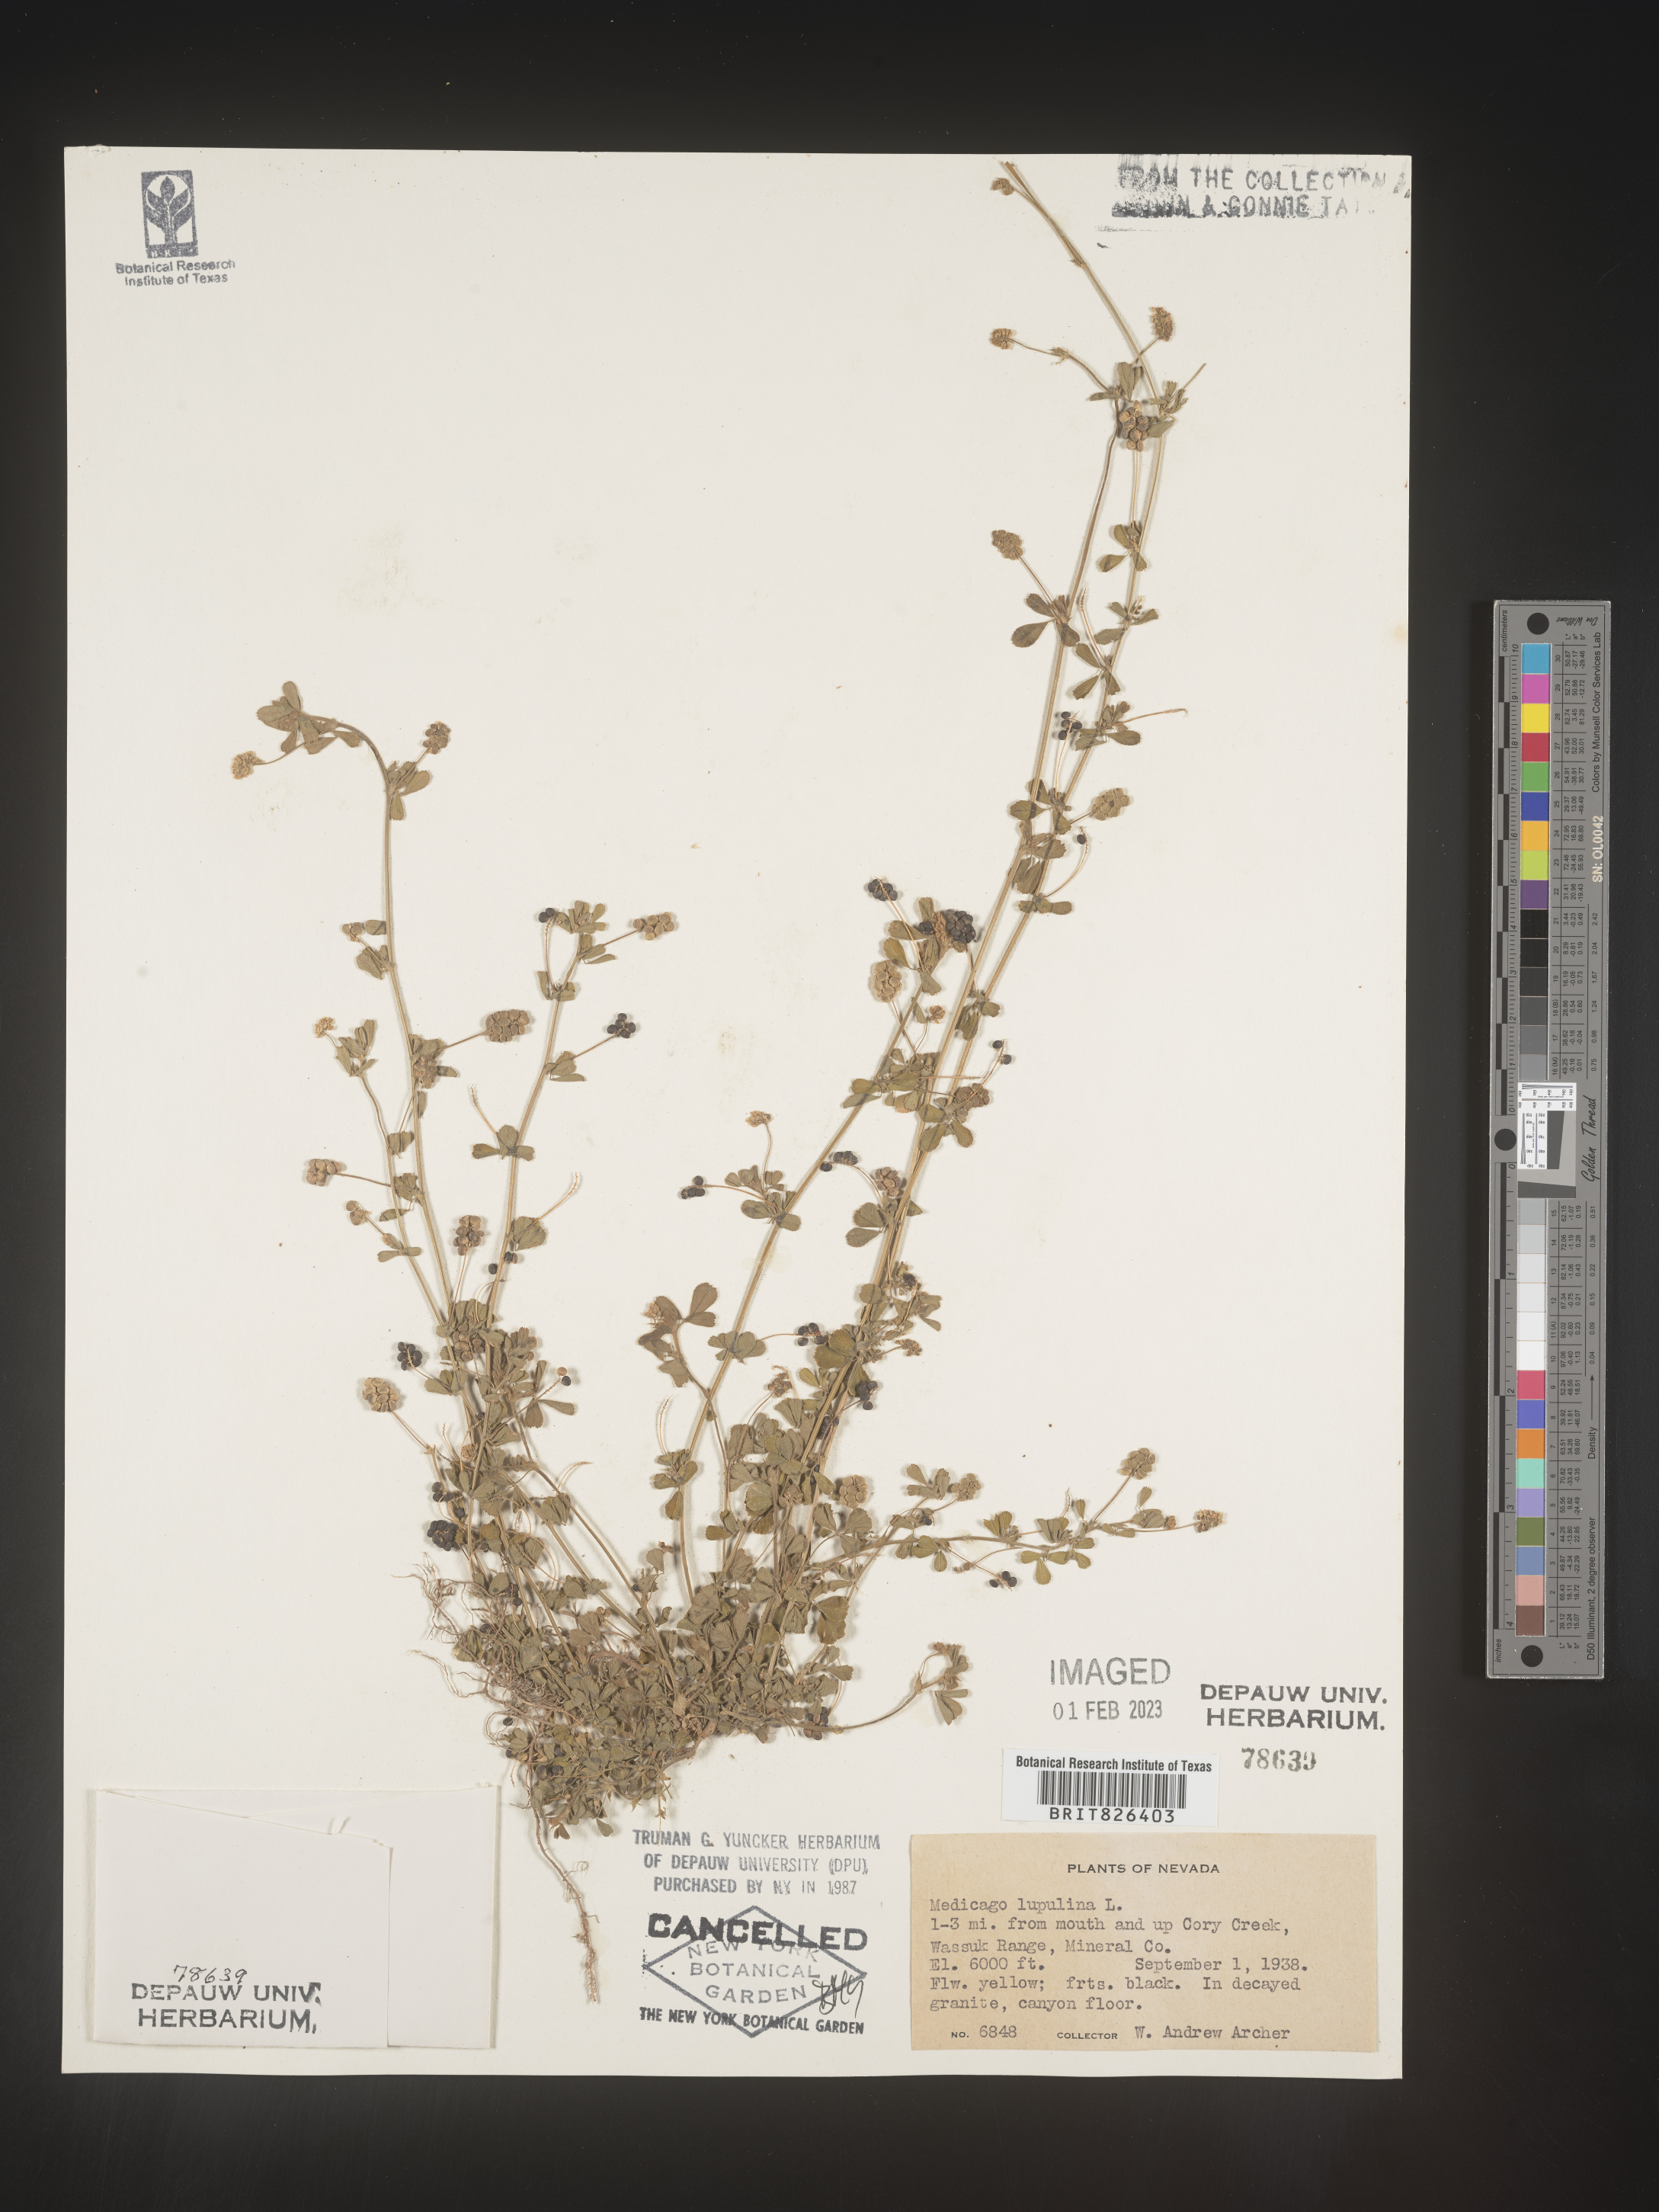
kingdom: Plantae
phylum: Tracheophyta
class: Magnoliopsida
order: Fabales
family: Fabaceae
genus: Medicago
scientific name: Medicago lupulina
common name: Black medick
